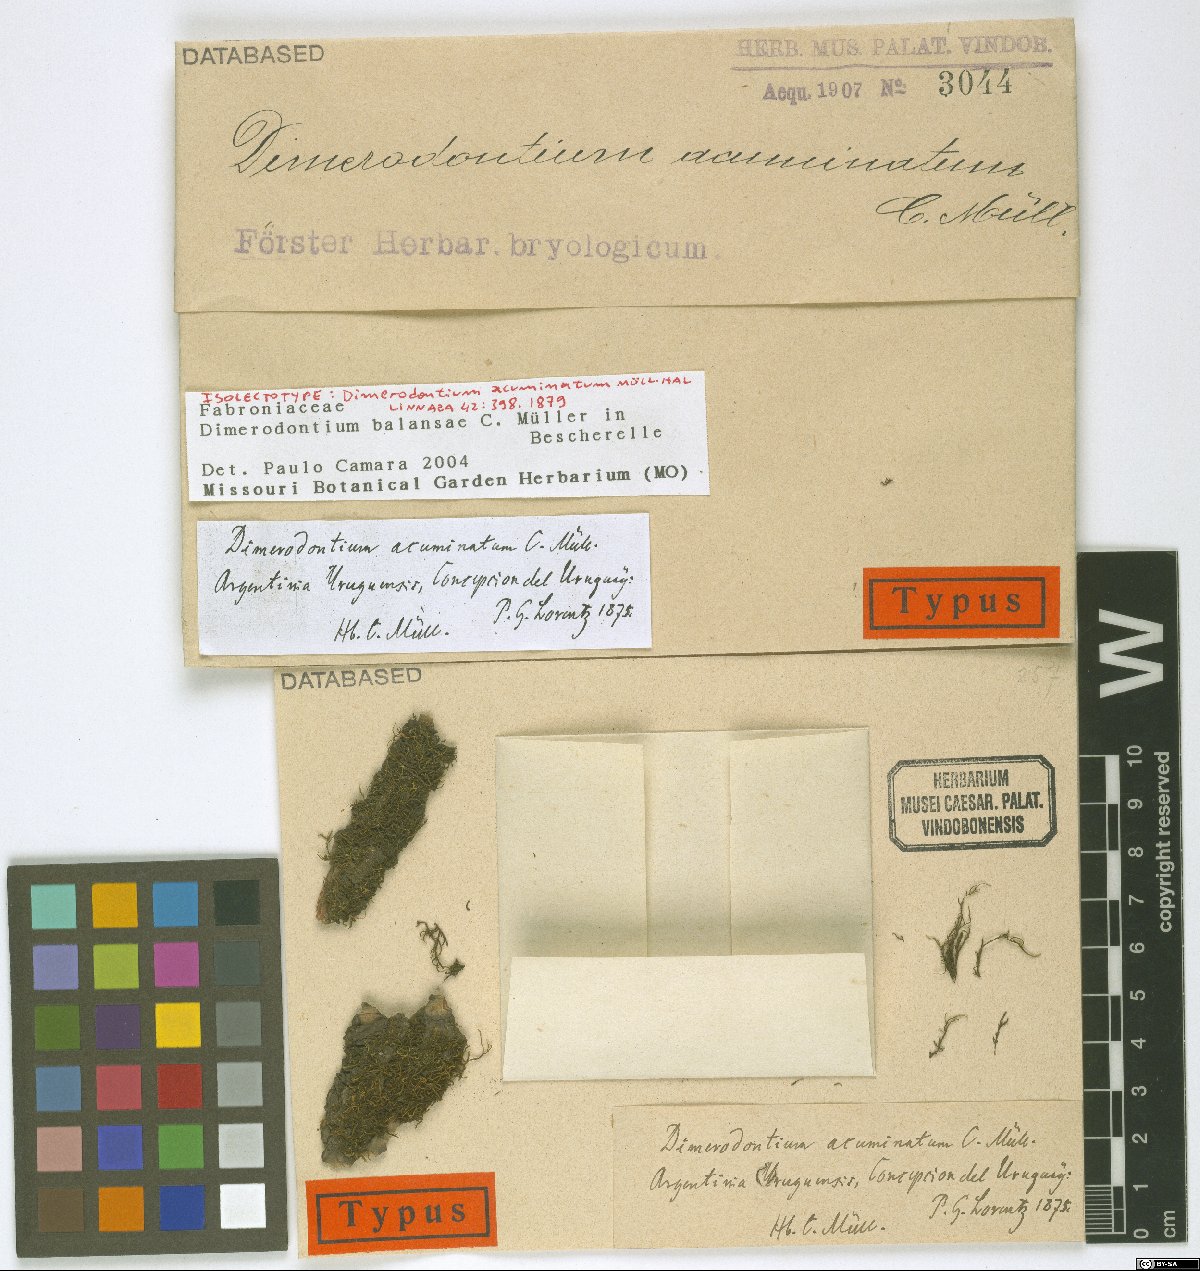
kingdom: Plantae
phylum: Bryophyta
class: Bryopsida
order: Hypnales
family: Fabroniaceae
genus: Dimerodontium
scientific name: Dimerodontium balansae
